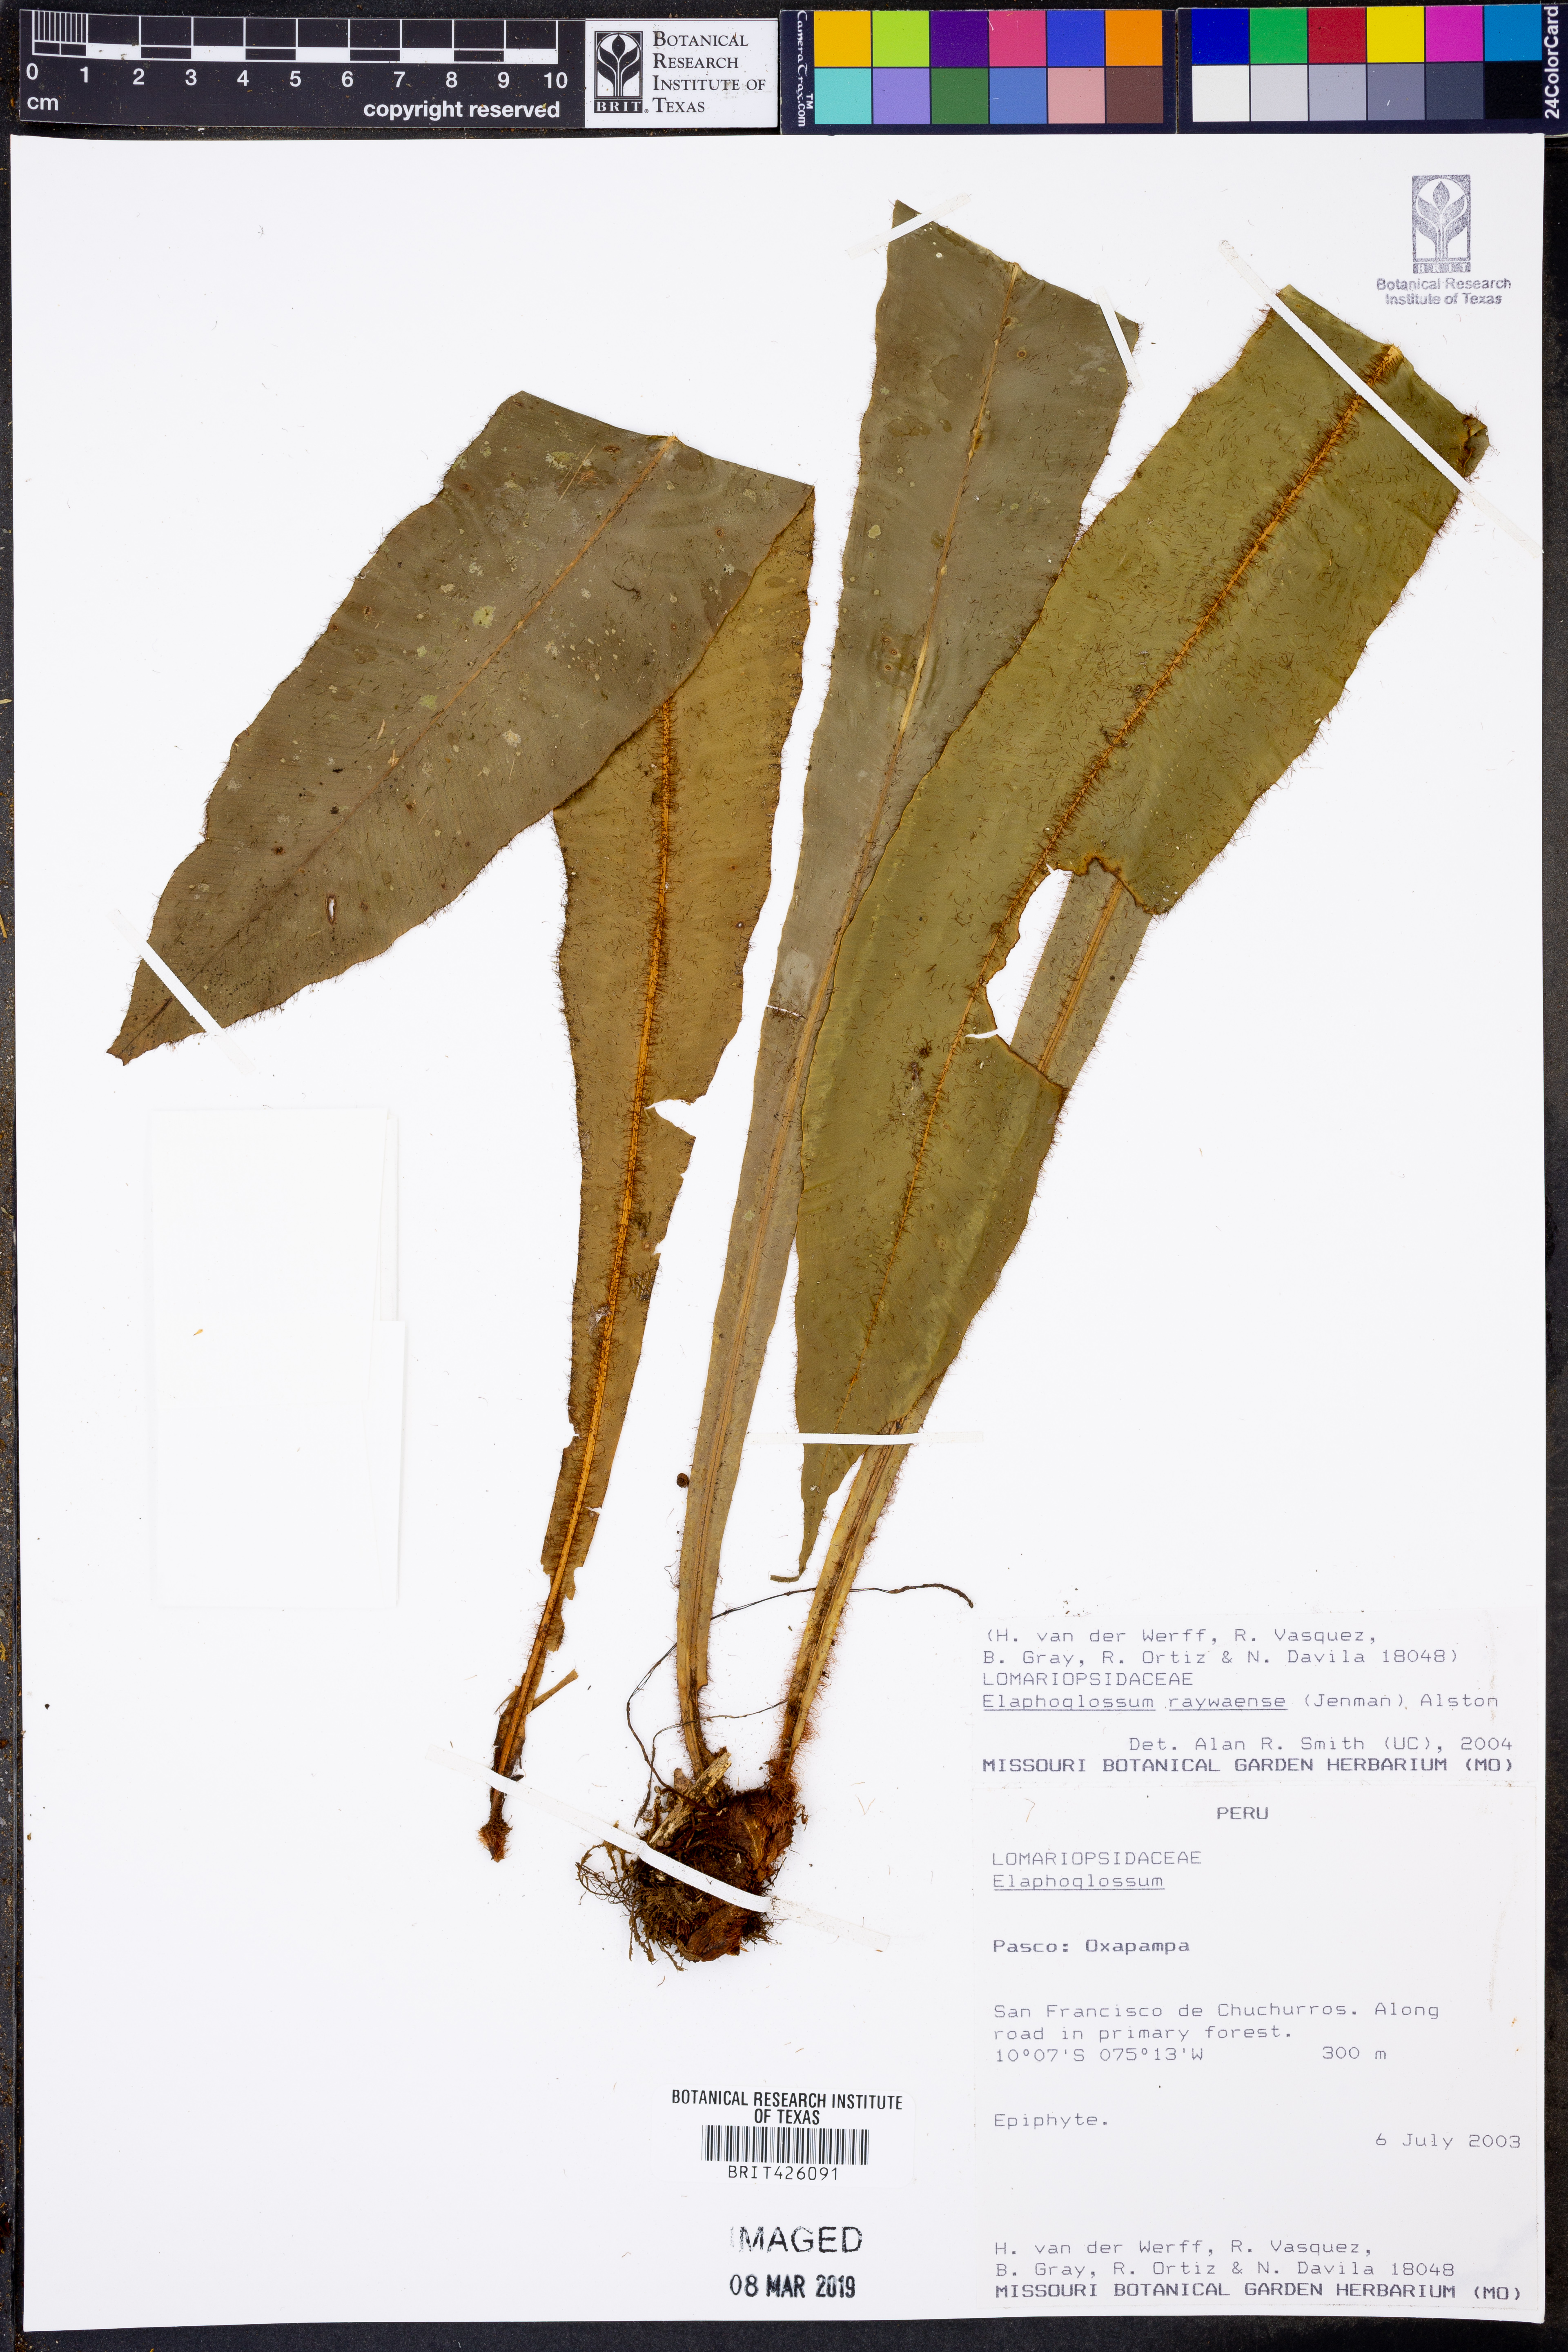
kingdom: Plantae
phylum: Tracheophyta
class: Polypodiopsida
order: Polypodiales
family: Dryopteridaceae
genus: Elaphoglossum
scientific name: Elaphoglossum raywaense
